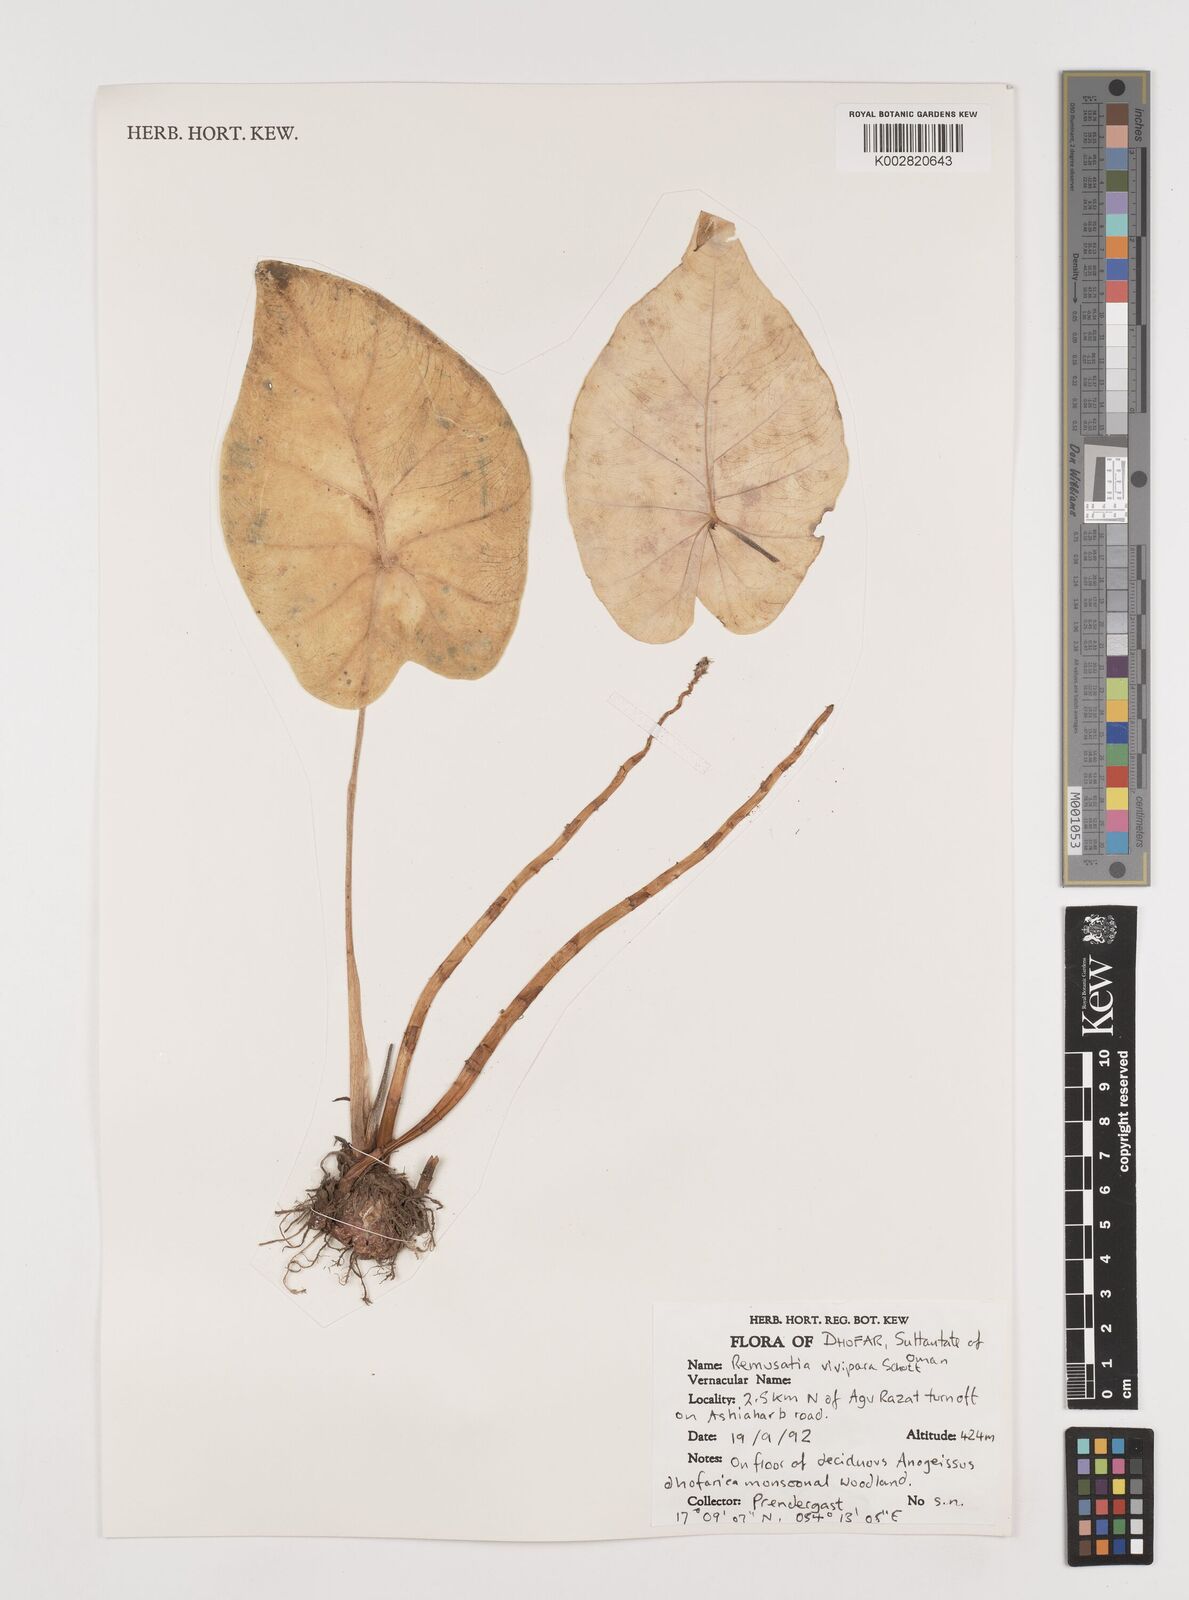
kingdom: Plantae
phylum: Tracheophyta
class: Liliopsida
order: Alismatales
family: Araceae
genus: Remusatia
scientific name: Remusatia vivipara
